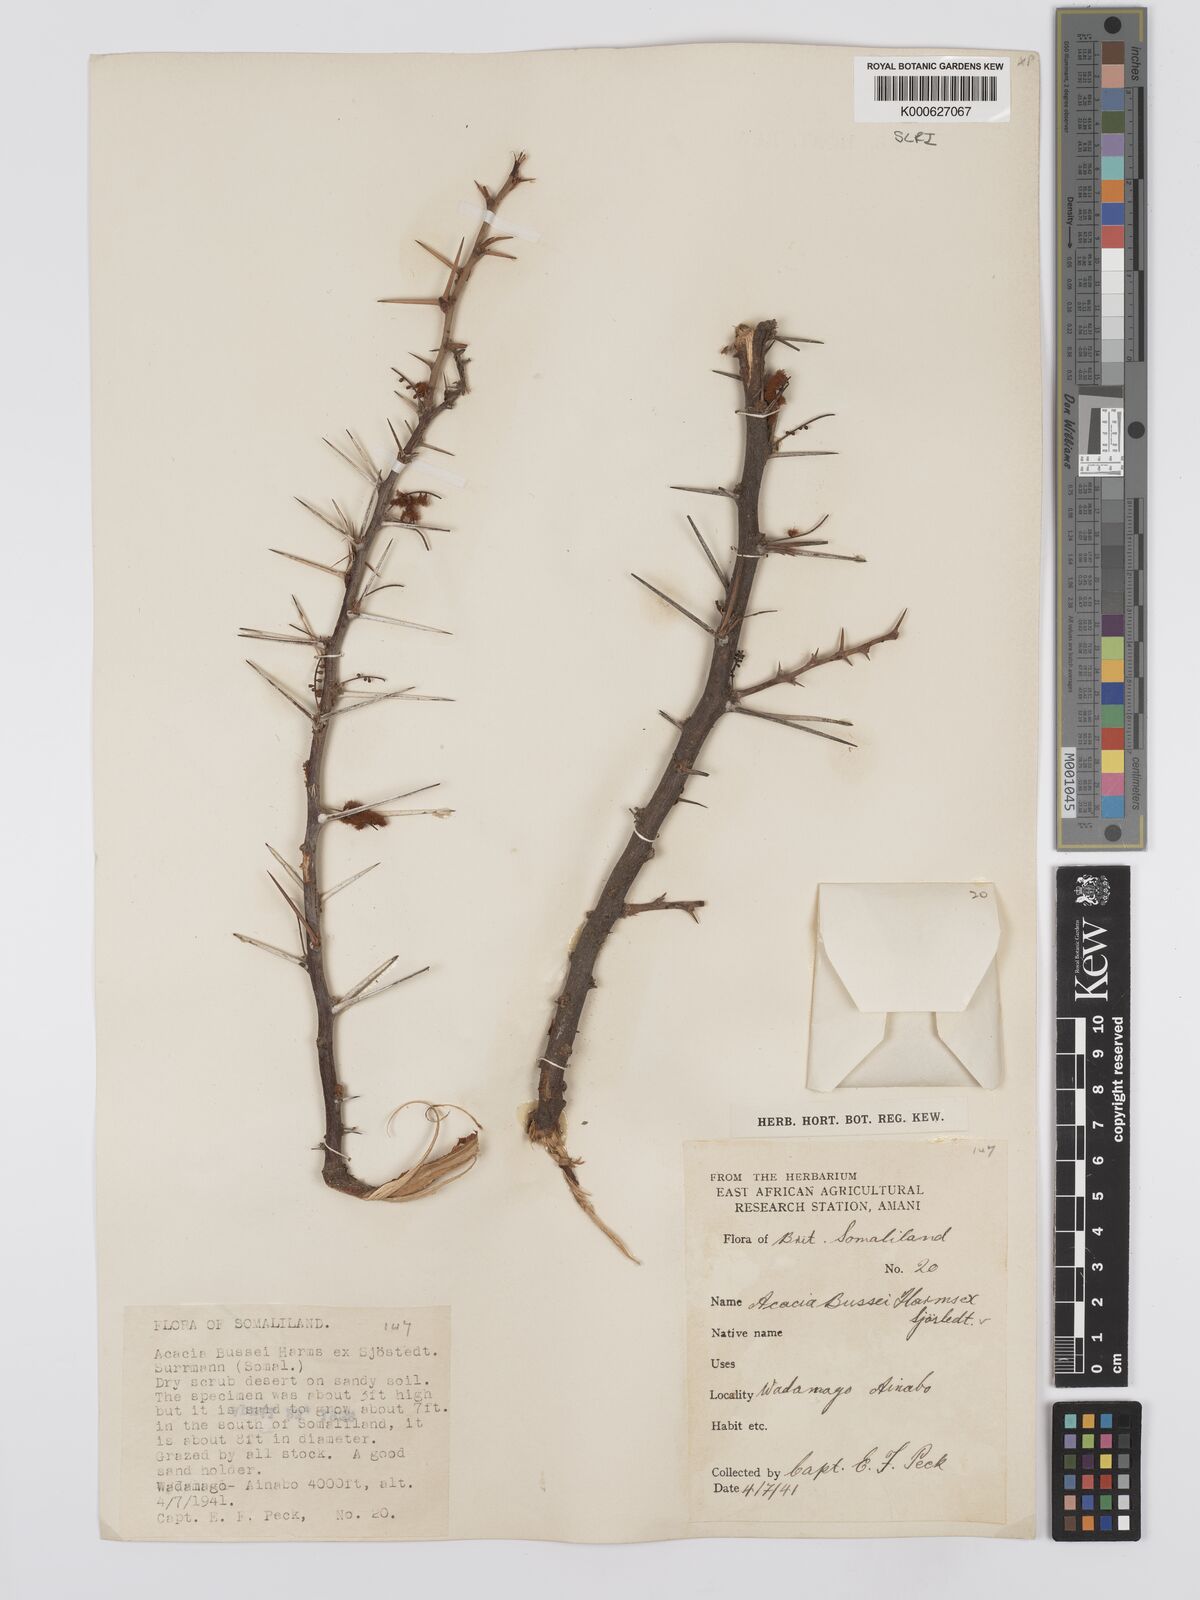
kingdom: Plantae
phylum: Tracheophyta
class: Magnoliopsida
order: Fabales
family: Fabaceae
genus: Vachellia
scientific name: Vachellia bussei
